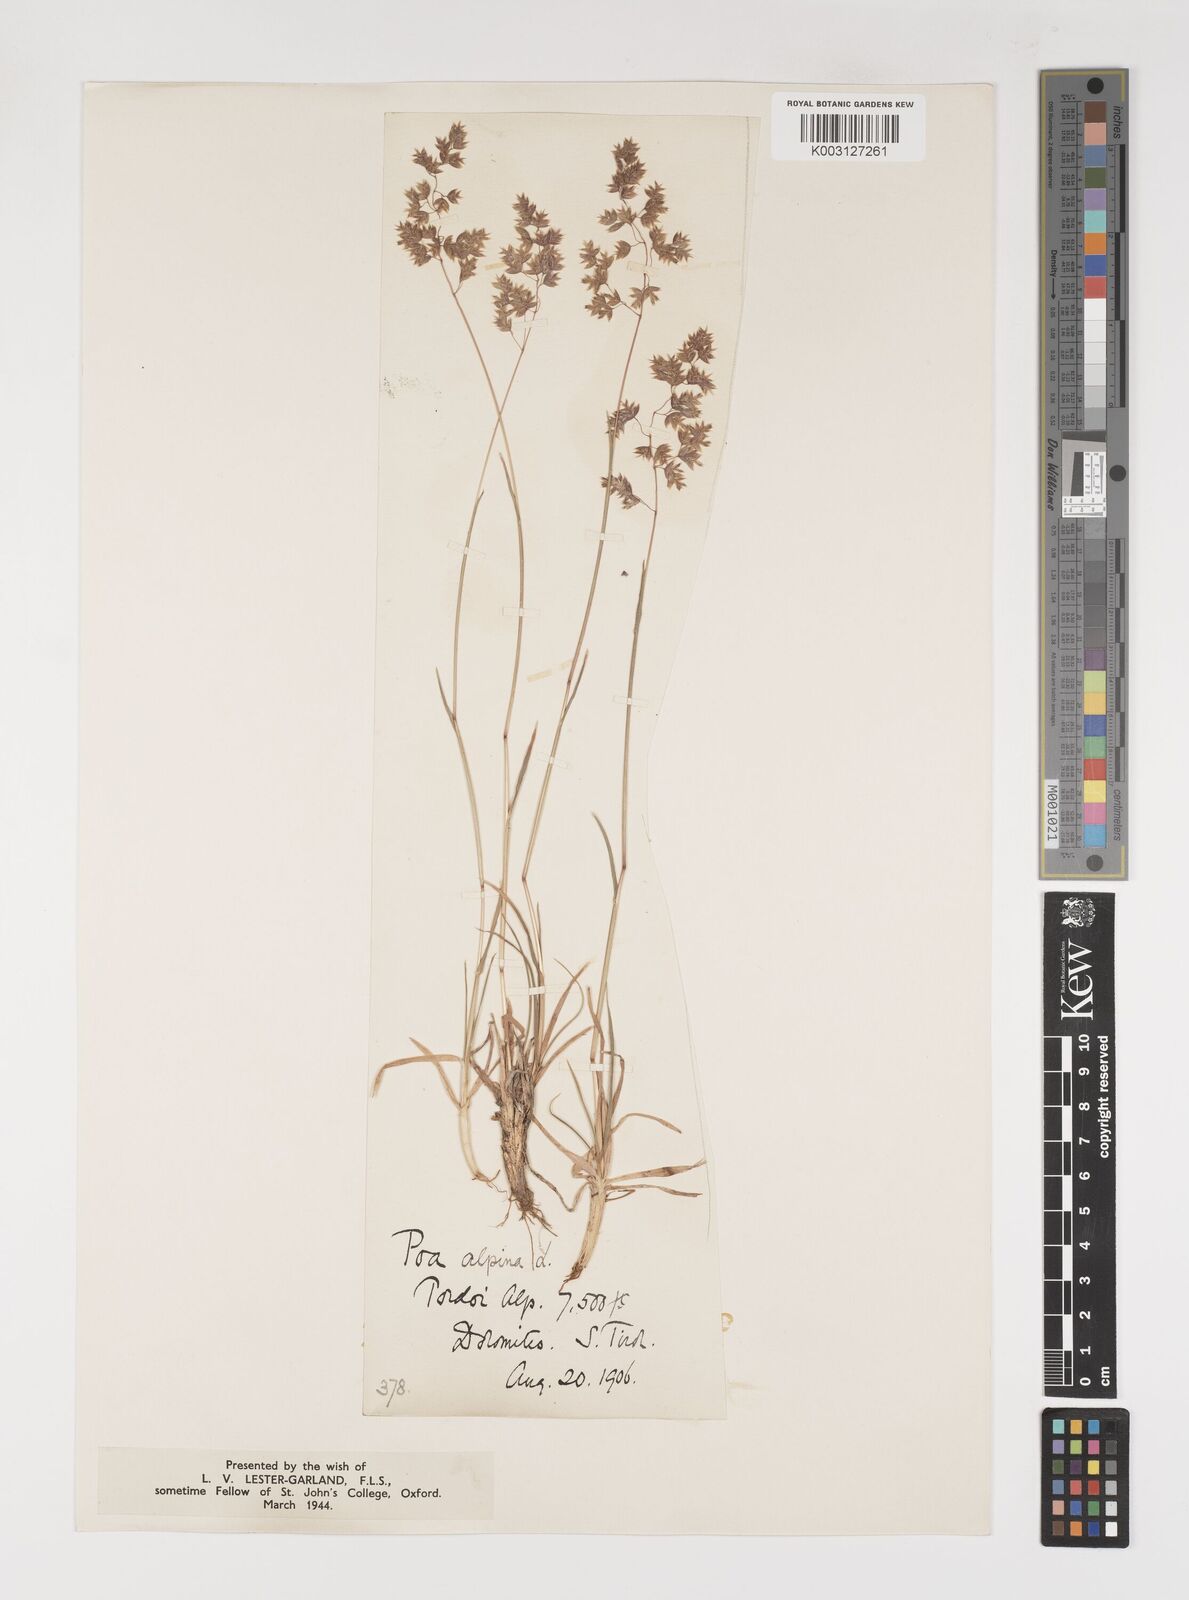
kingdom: Plantae
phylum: Tracheophyta
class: Liliopsida
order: Poales
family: Poaceae
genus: Poa
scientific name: Poa alpina
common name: Alpine bluegrass
